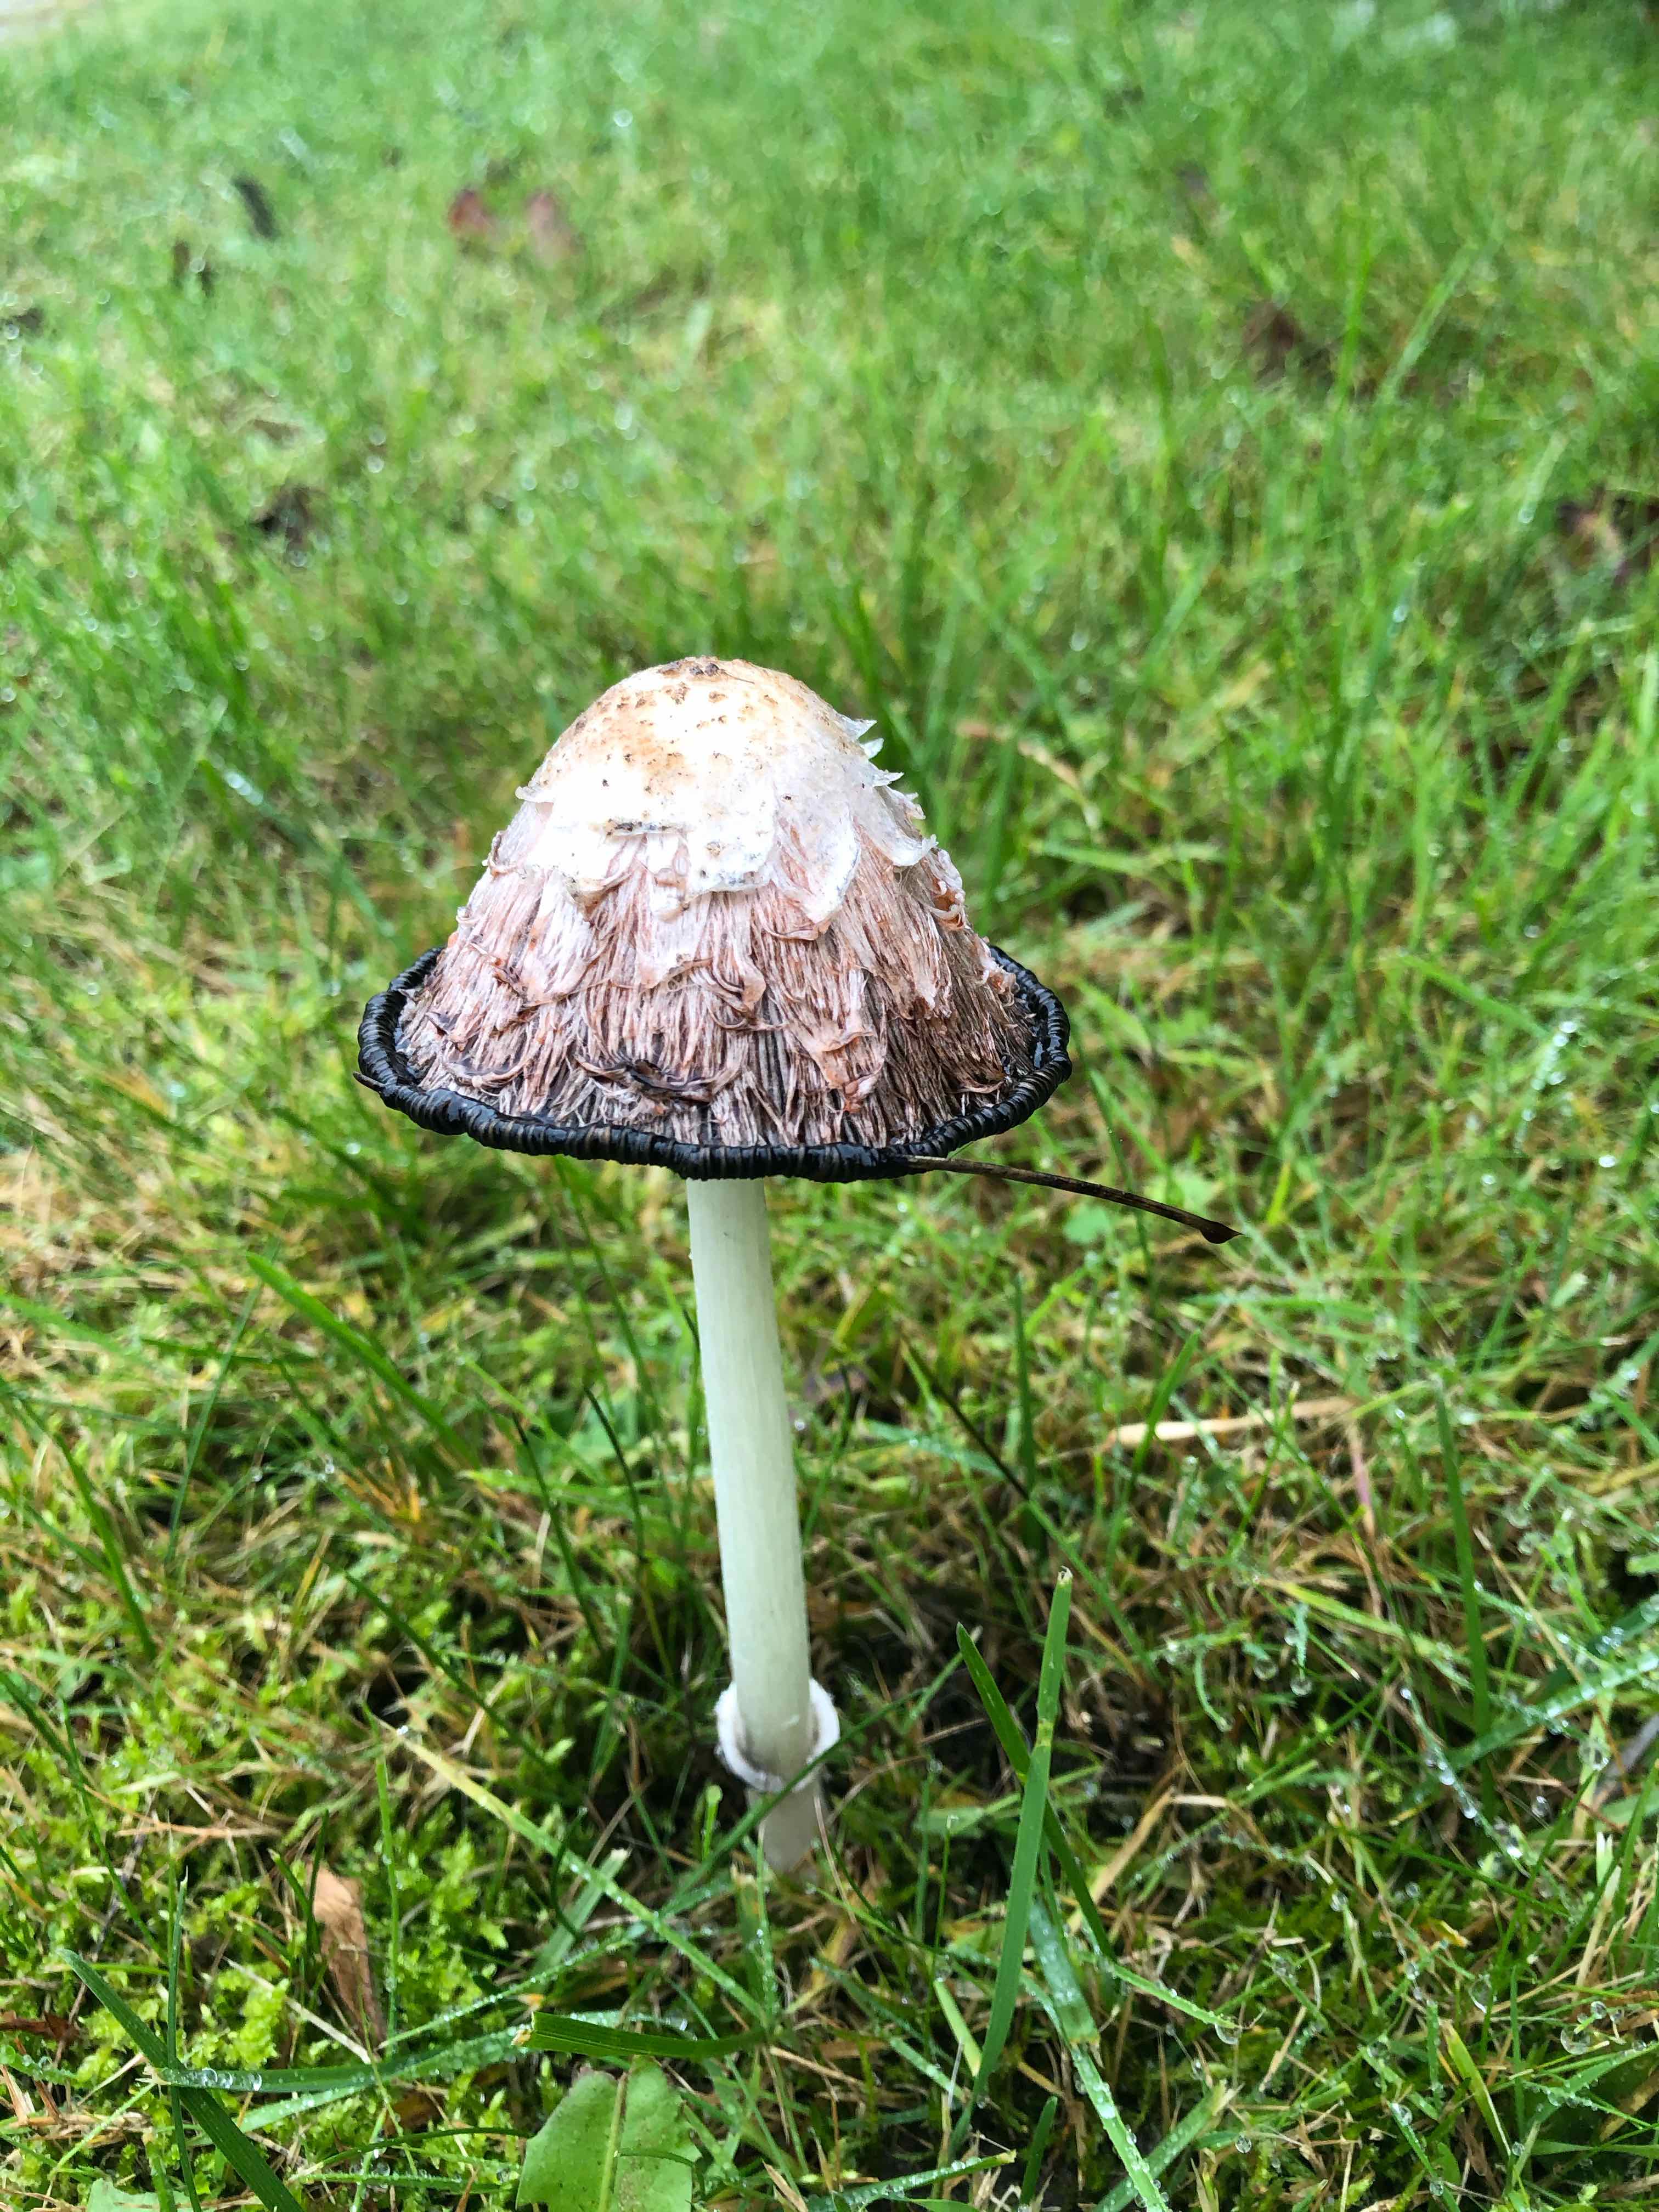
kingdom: Fungi
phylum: Basidiomycota
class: Agaricomycetes
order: Agaricales
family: Agaricaceae
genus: Coprinus
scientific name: Coprinus comatus
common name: stor parykhat
